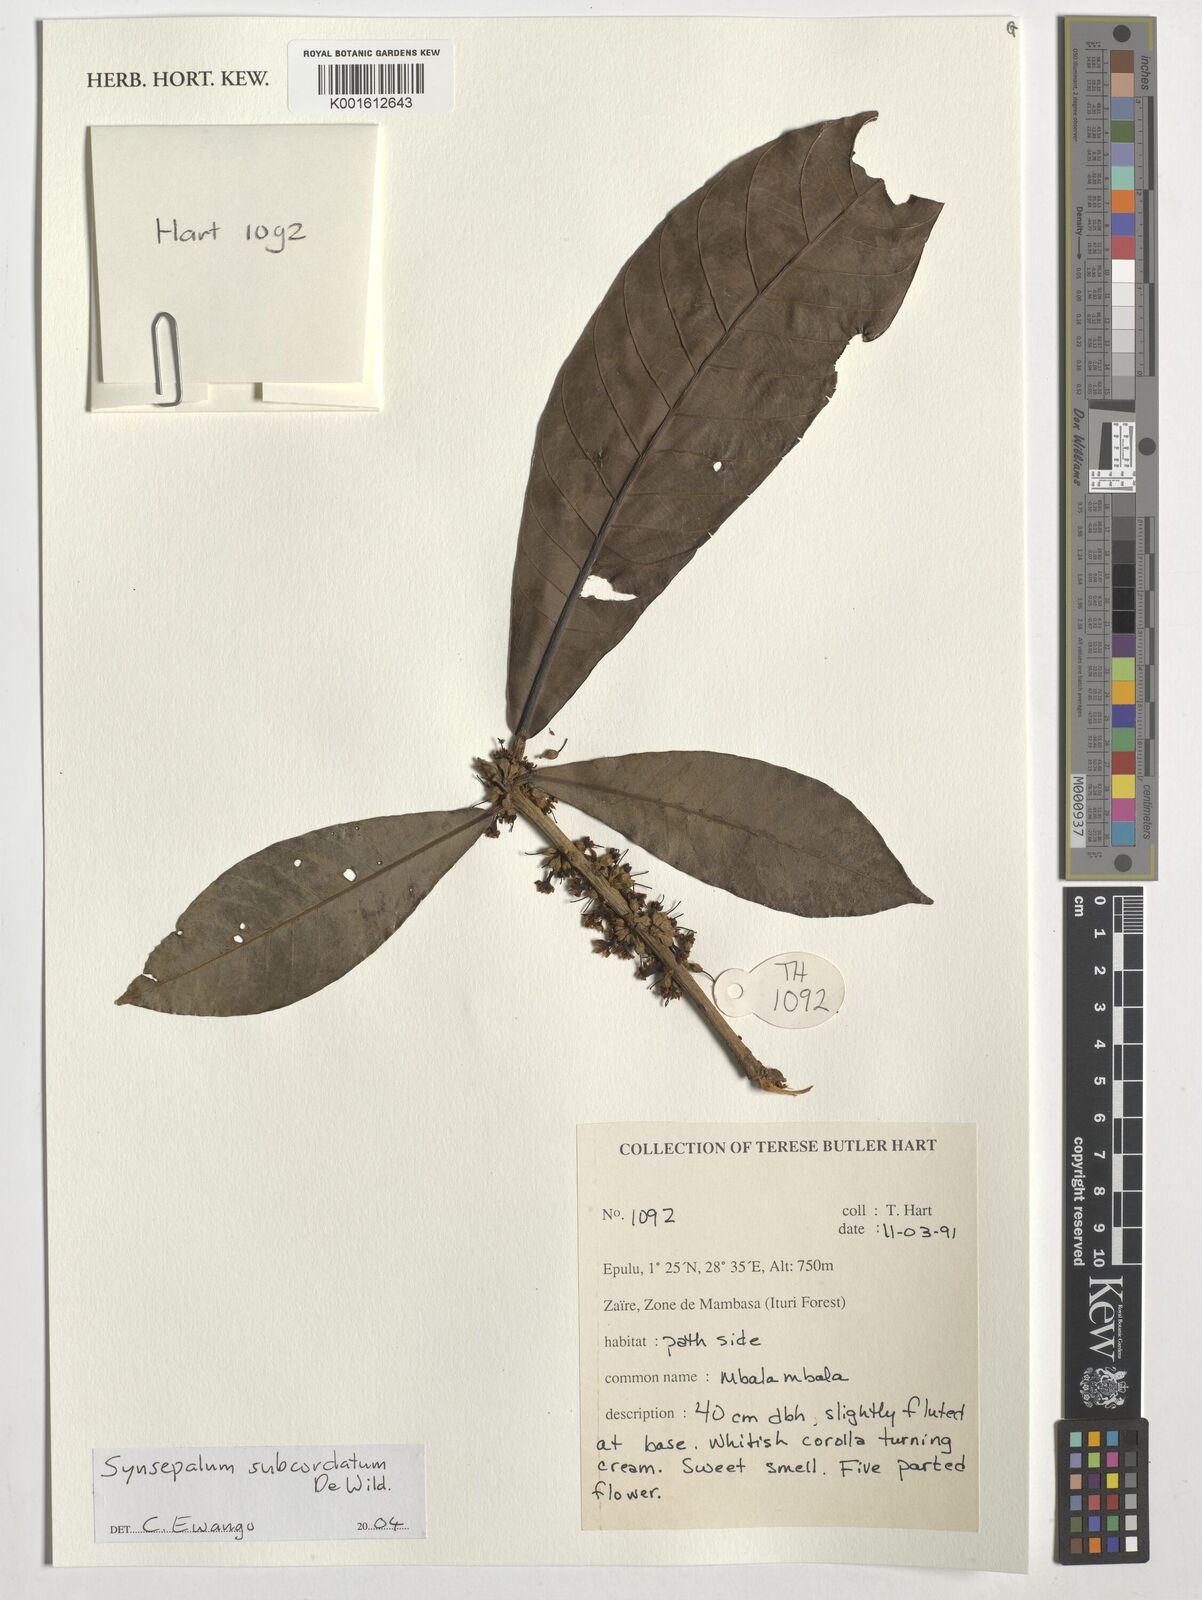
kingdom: Plantae
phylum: Tracheophyta
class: Magnoliopsida
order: Ericales
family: Sapotaceae
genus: Synsepalum
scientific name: Synsepalum subcordatum
